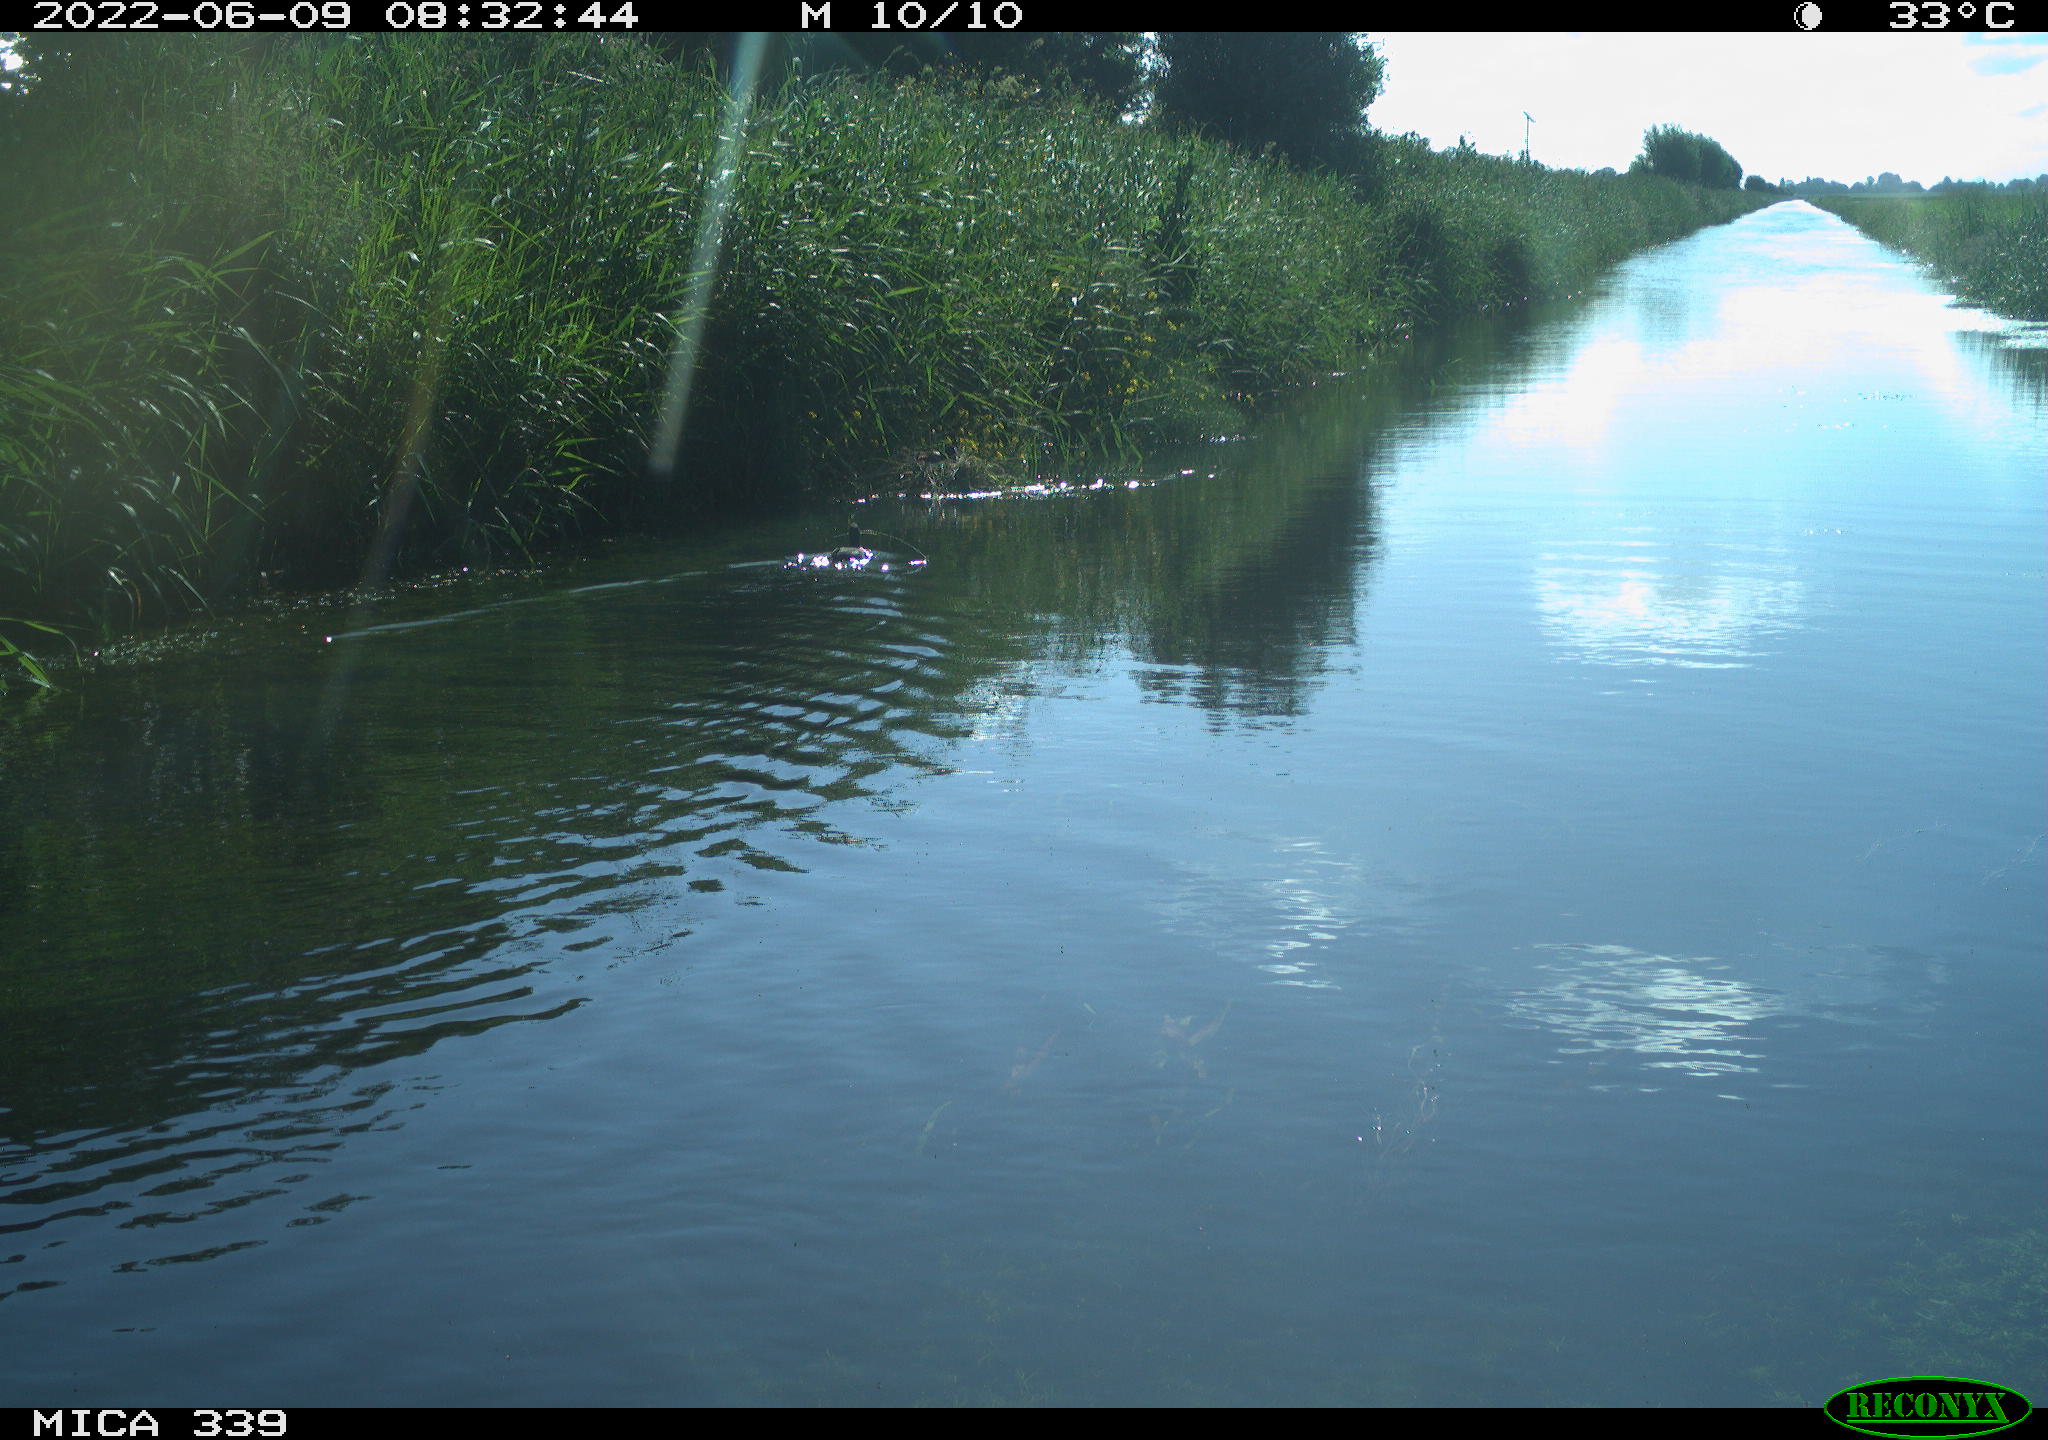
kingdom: Animalia
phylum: Chordata
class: Aves
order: Gruiformes
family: Rallidae
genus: Fulica
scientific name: Fulica atra
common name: Eurasian coot
